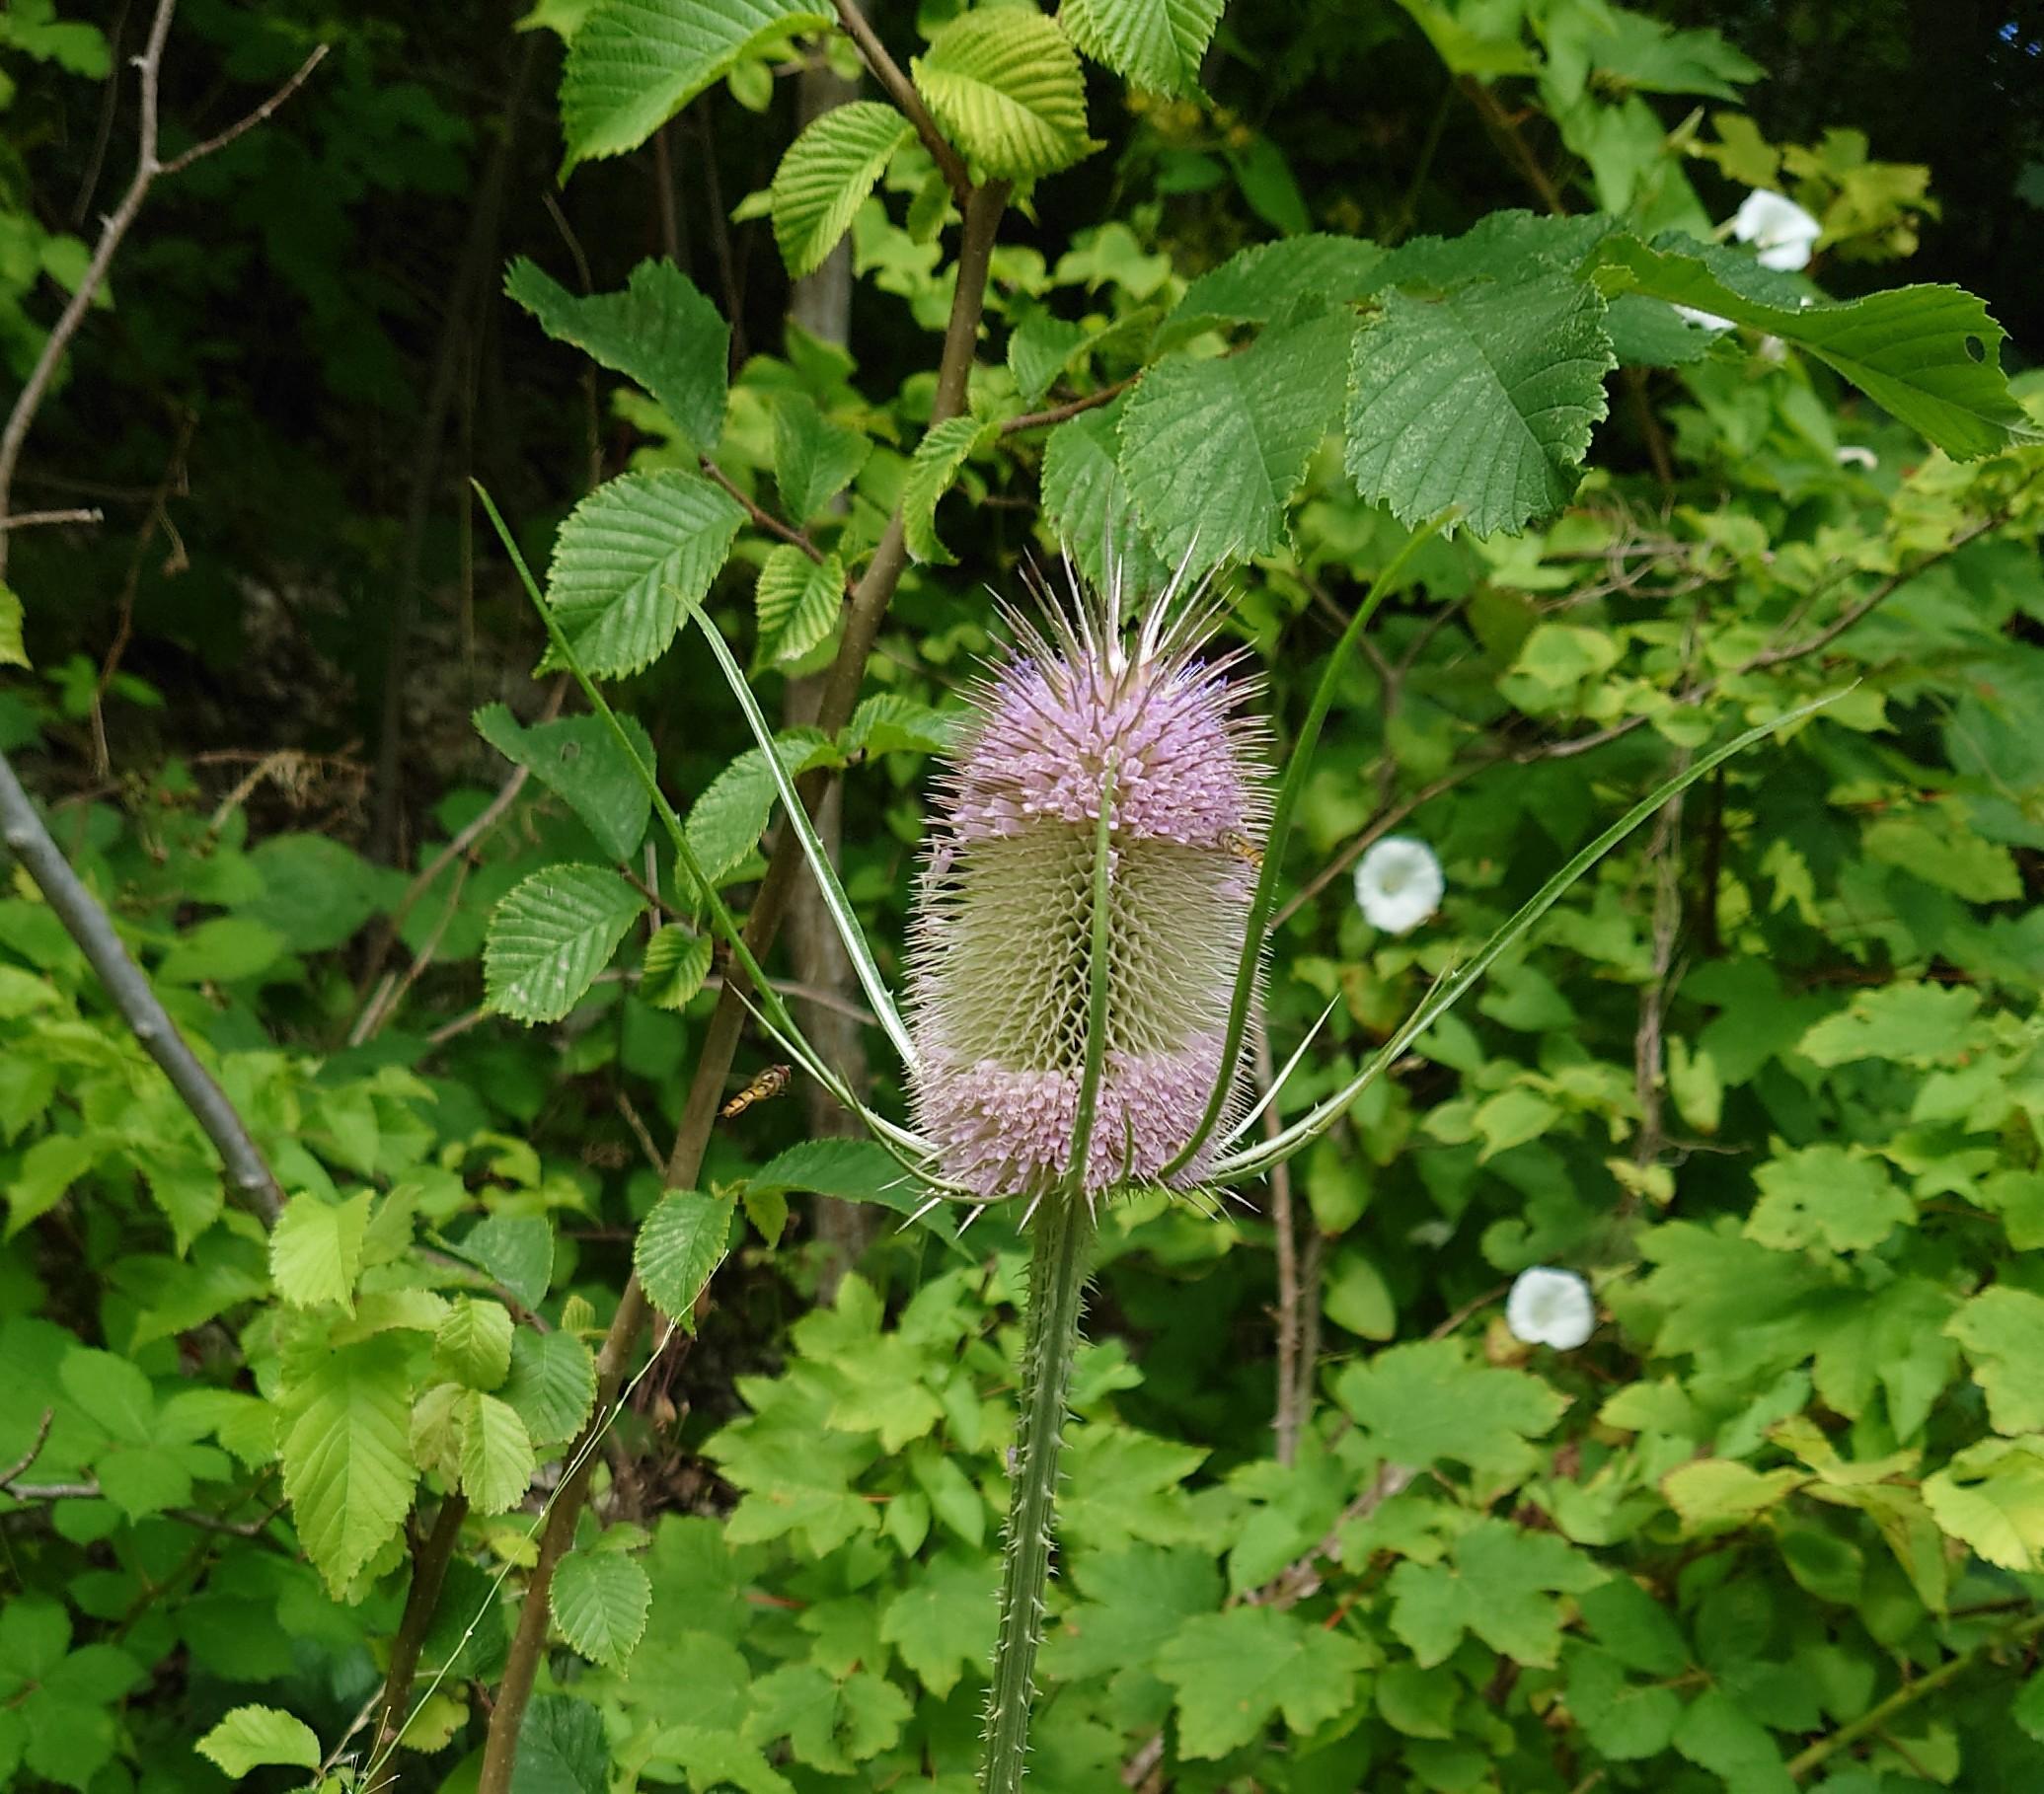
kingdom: Plantae
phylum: Tracheophyta
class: Magnoliopsida
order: Dipsacales
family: Caprifoliaceae
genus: Dipsacus
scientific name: Dipsacus fullonum
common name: Gærde-kartebolle
